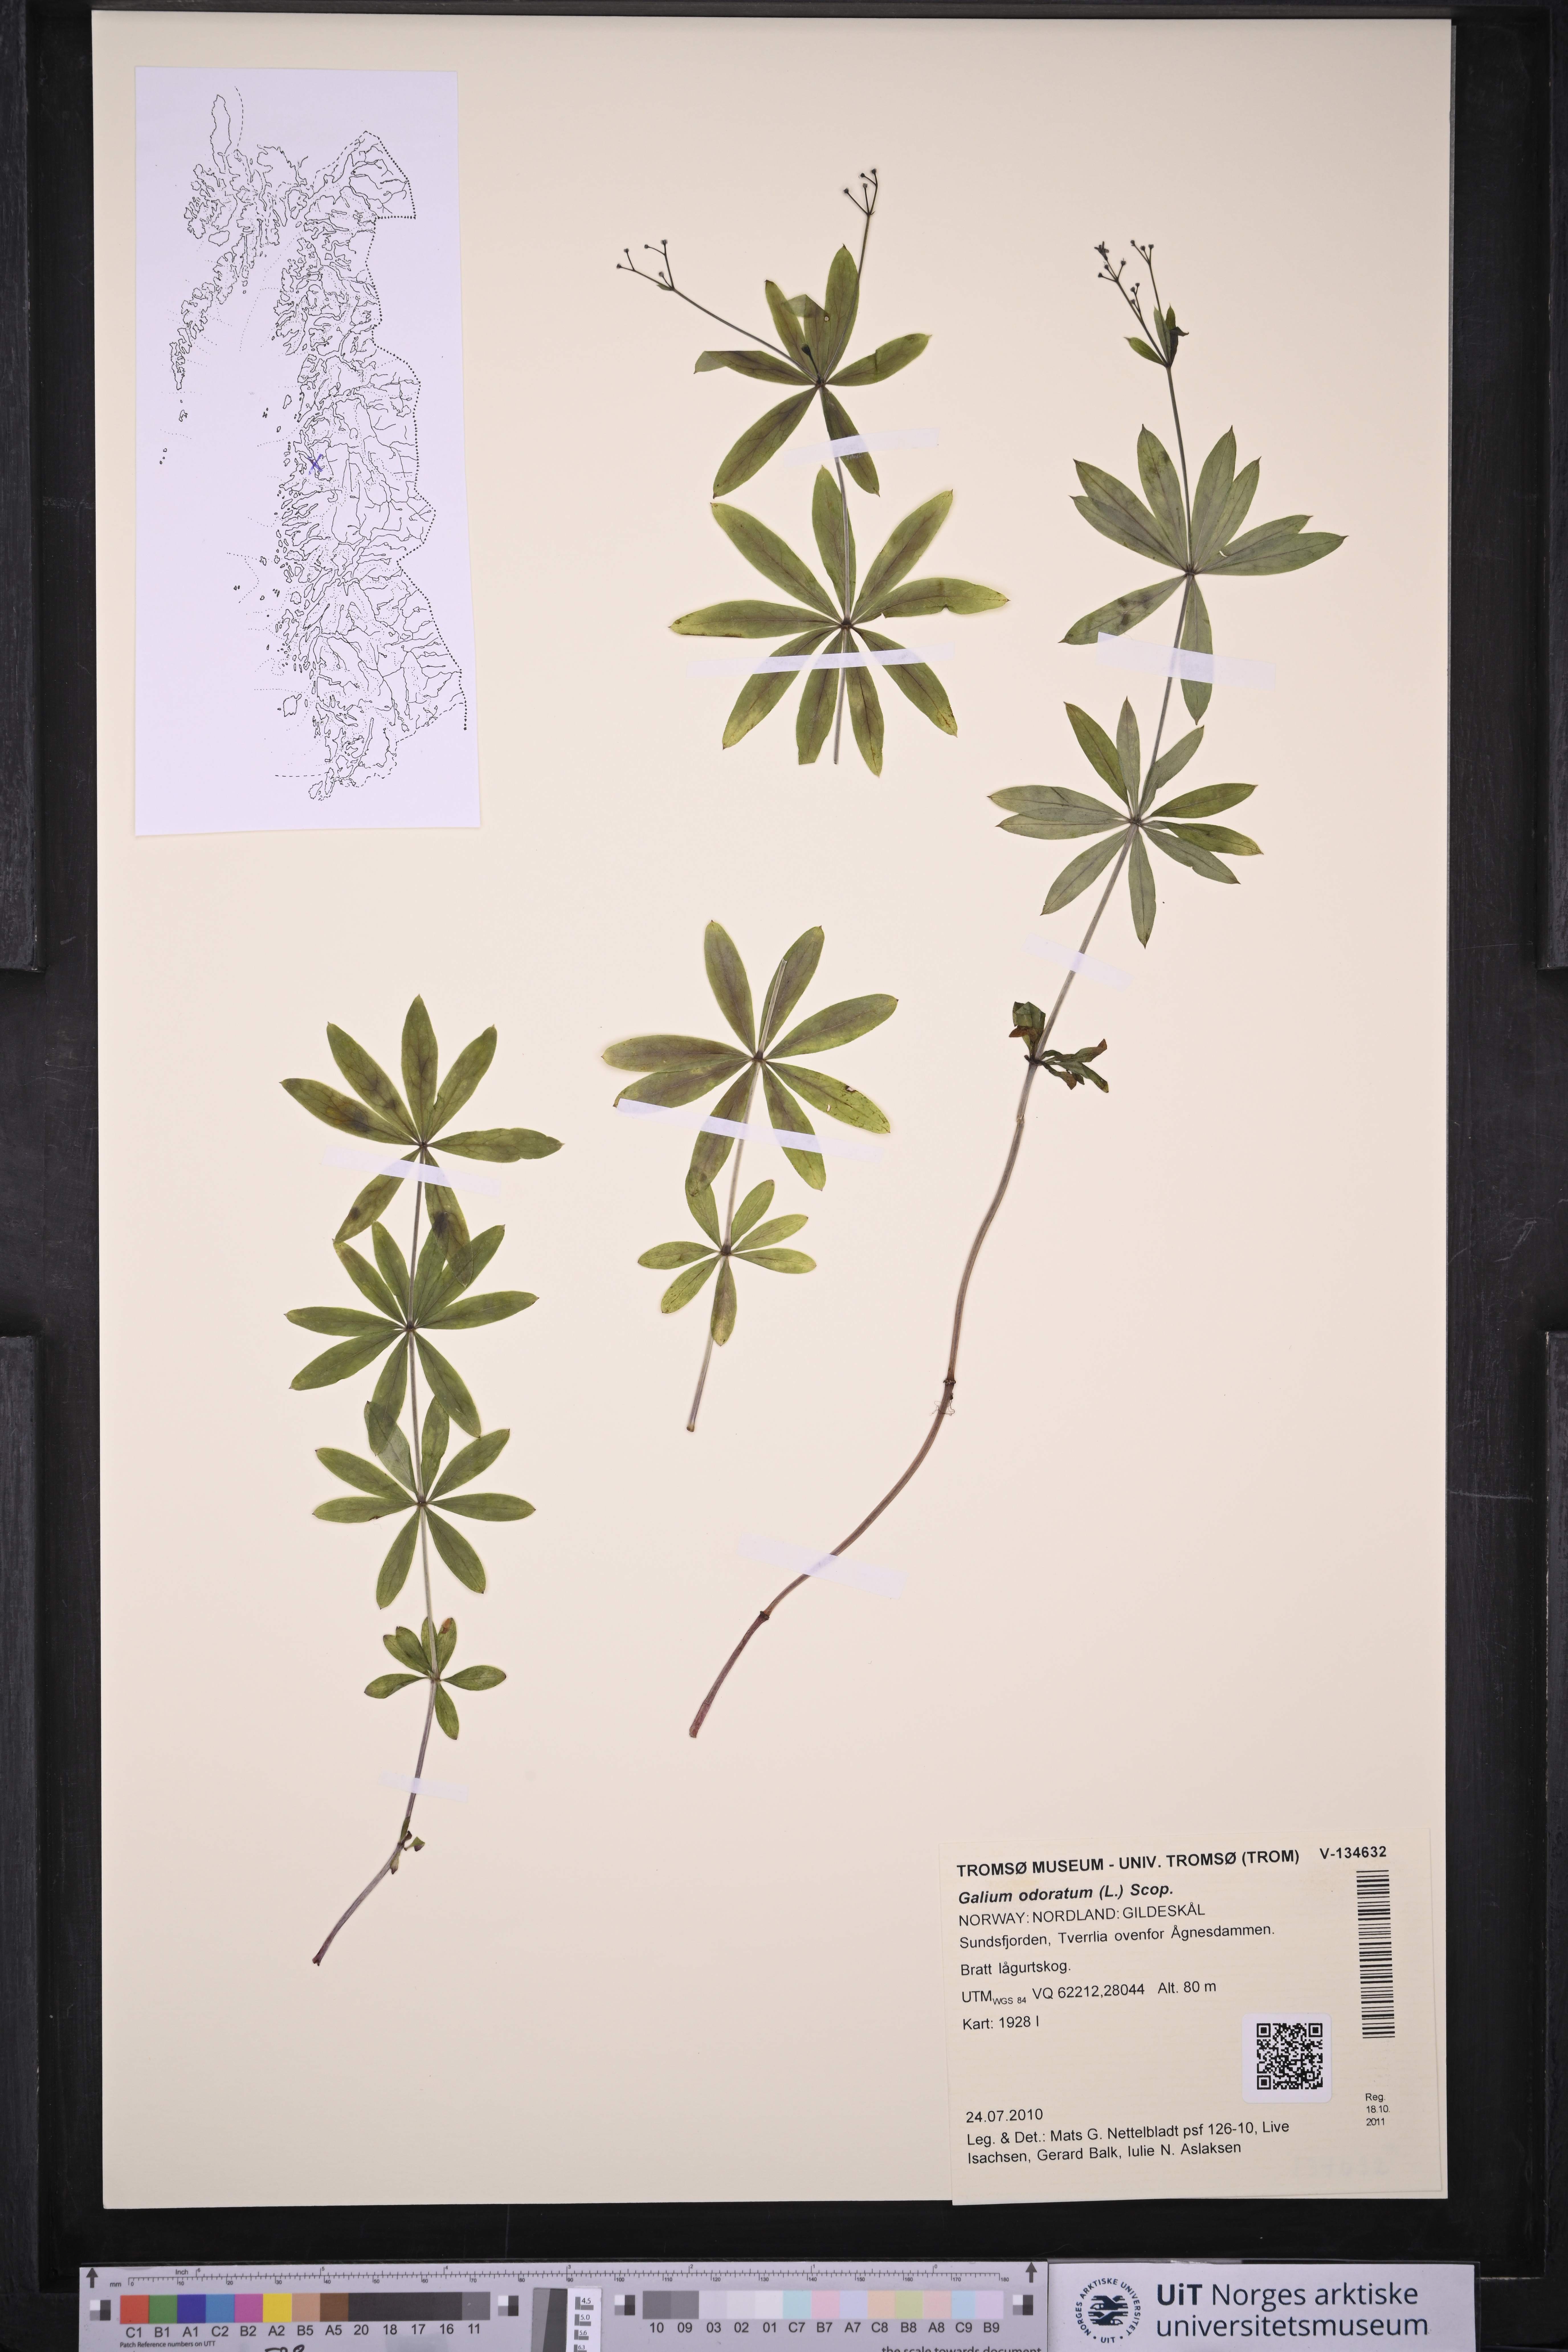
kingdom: Plantae
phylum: Tracheophyta
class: Magnoliopsida
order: Gentianales
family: Rubiaceae
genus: Galium
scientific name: Galium odoratum
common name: Sweet woodruff
